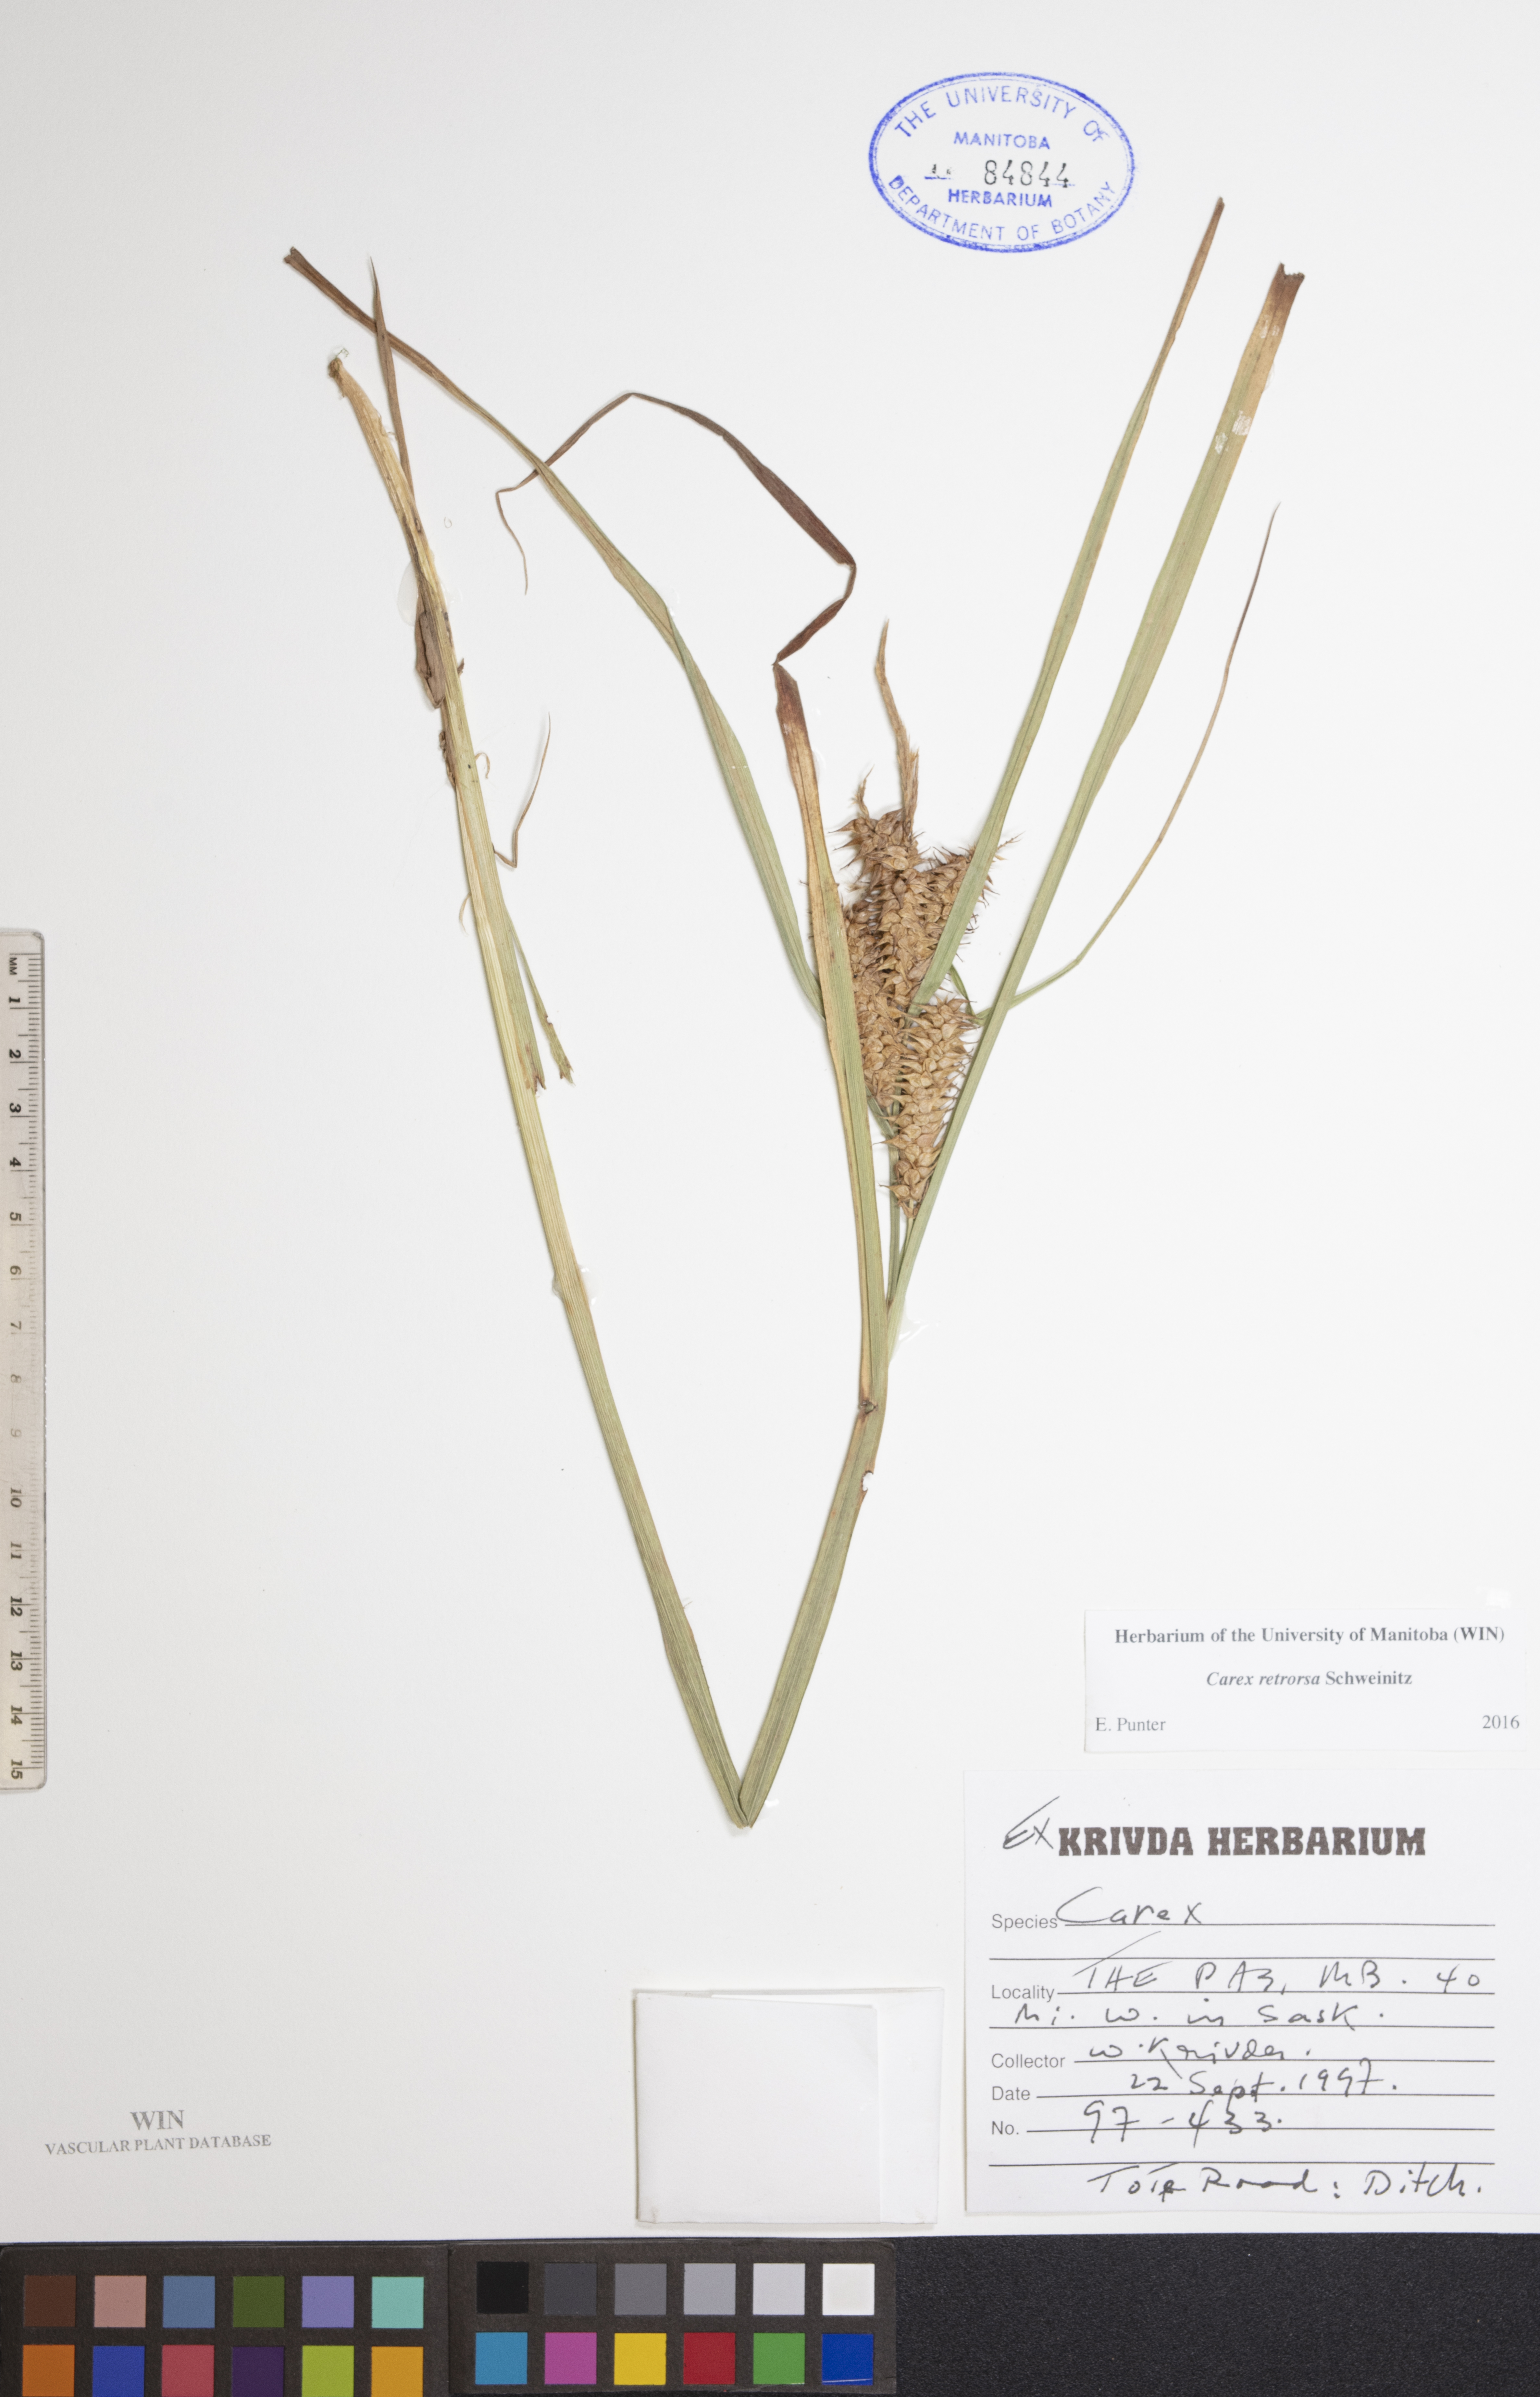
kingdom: Plantae
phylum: Tracheophyta
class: Liliopsida
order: Poales
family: Cyperaceae
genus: Carex
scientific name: Carex retrorsa
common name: Knot-sheath sedge
